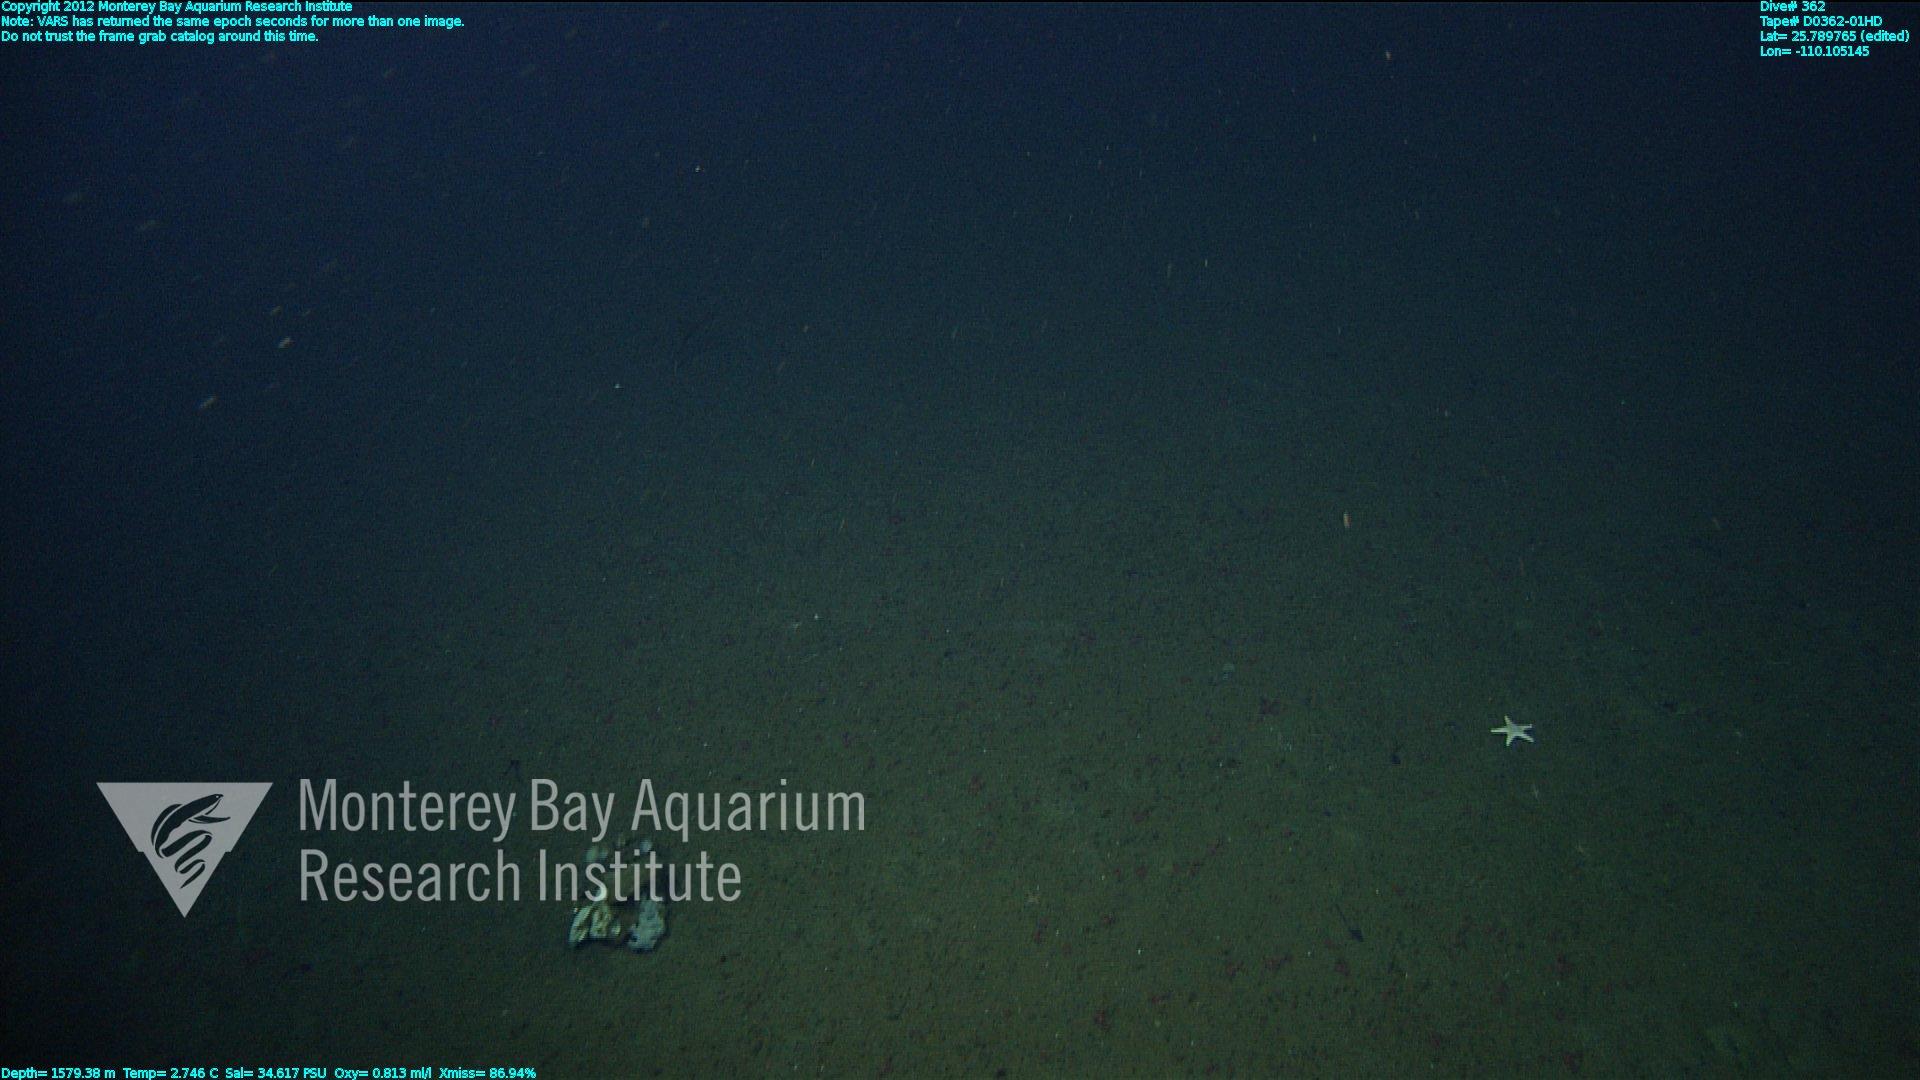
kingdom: Animalia
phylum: Porifera
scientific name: Porifera
